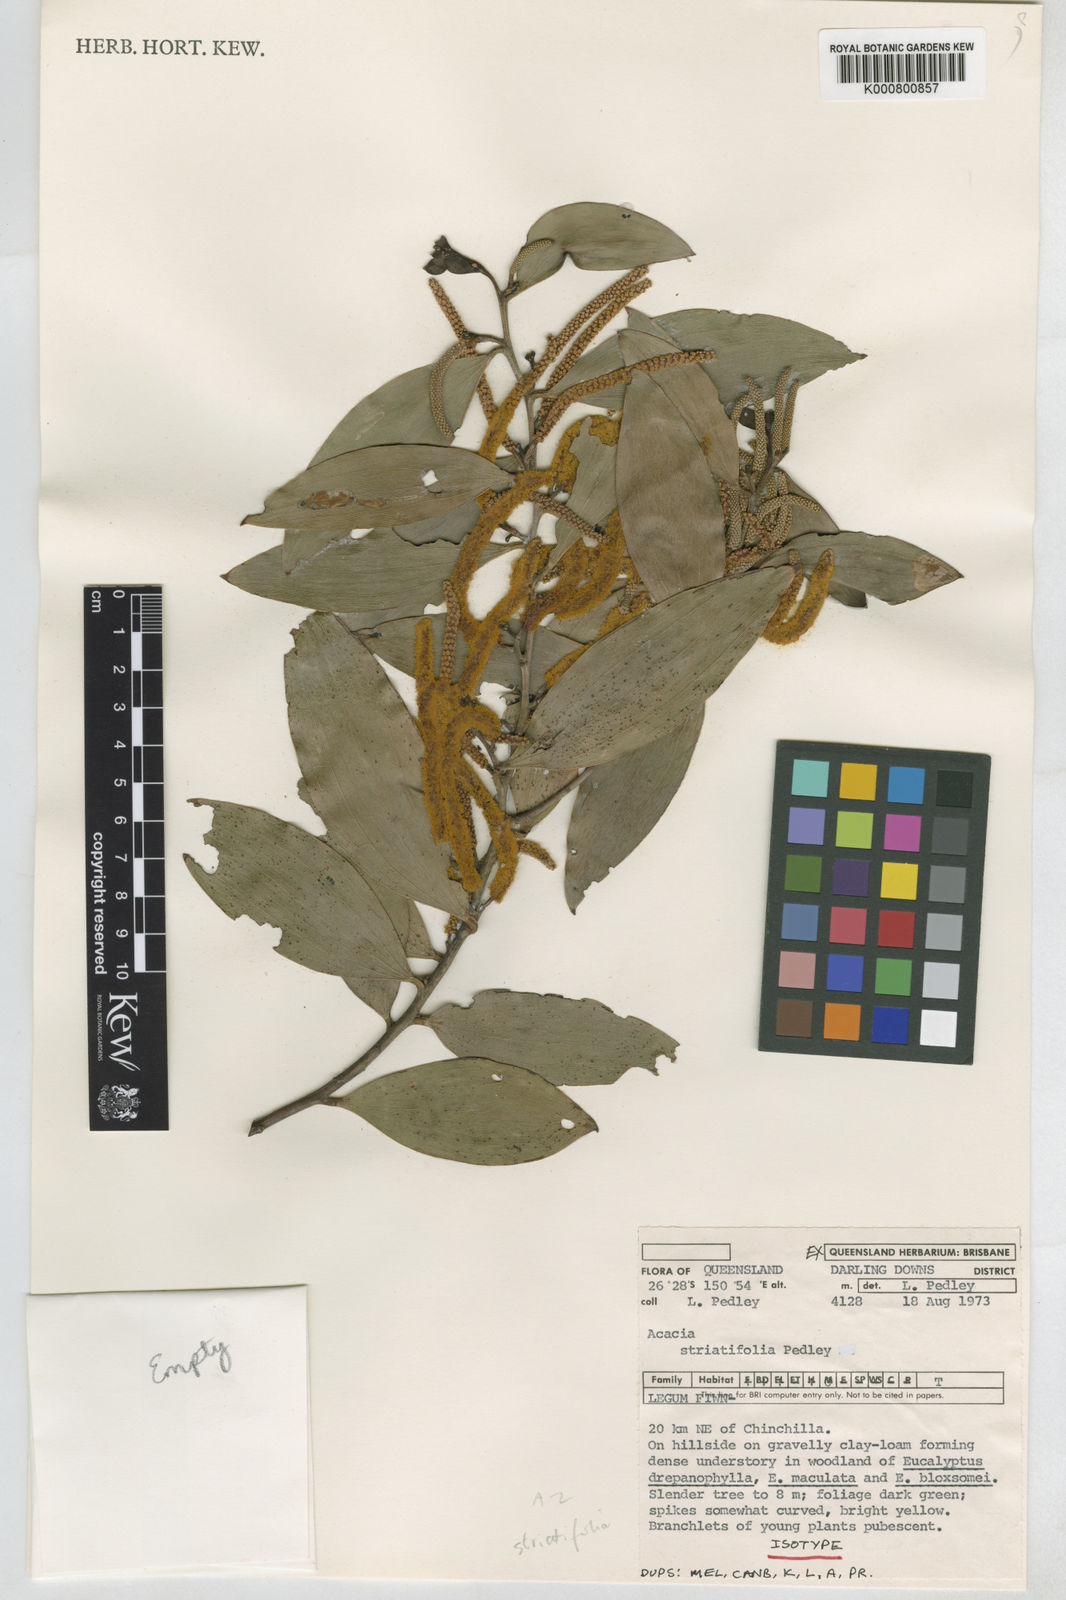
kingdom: Plantae
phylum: Tracheophyta
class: Magnoliopsida
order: Fabales
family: Fabaceae
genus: Acacia
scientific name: Acacia striatifolia
